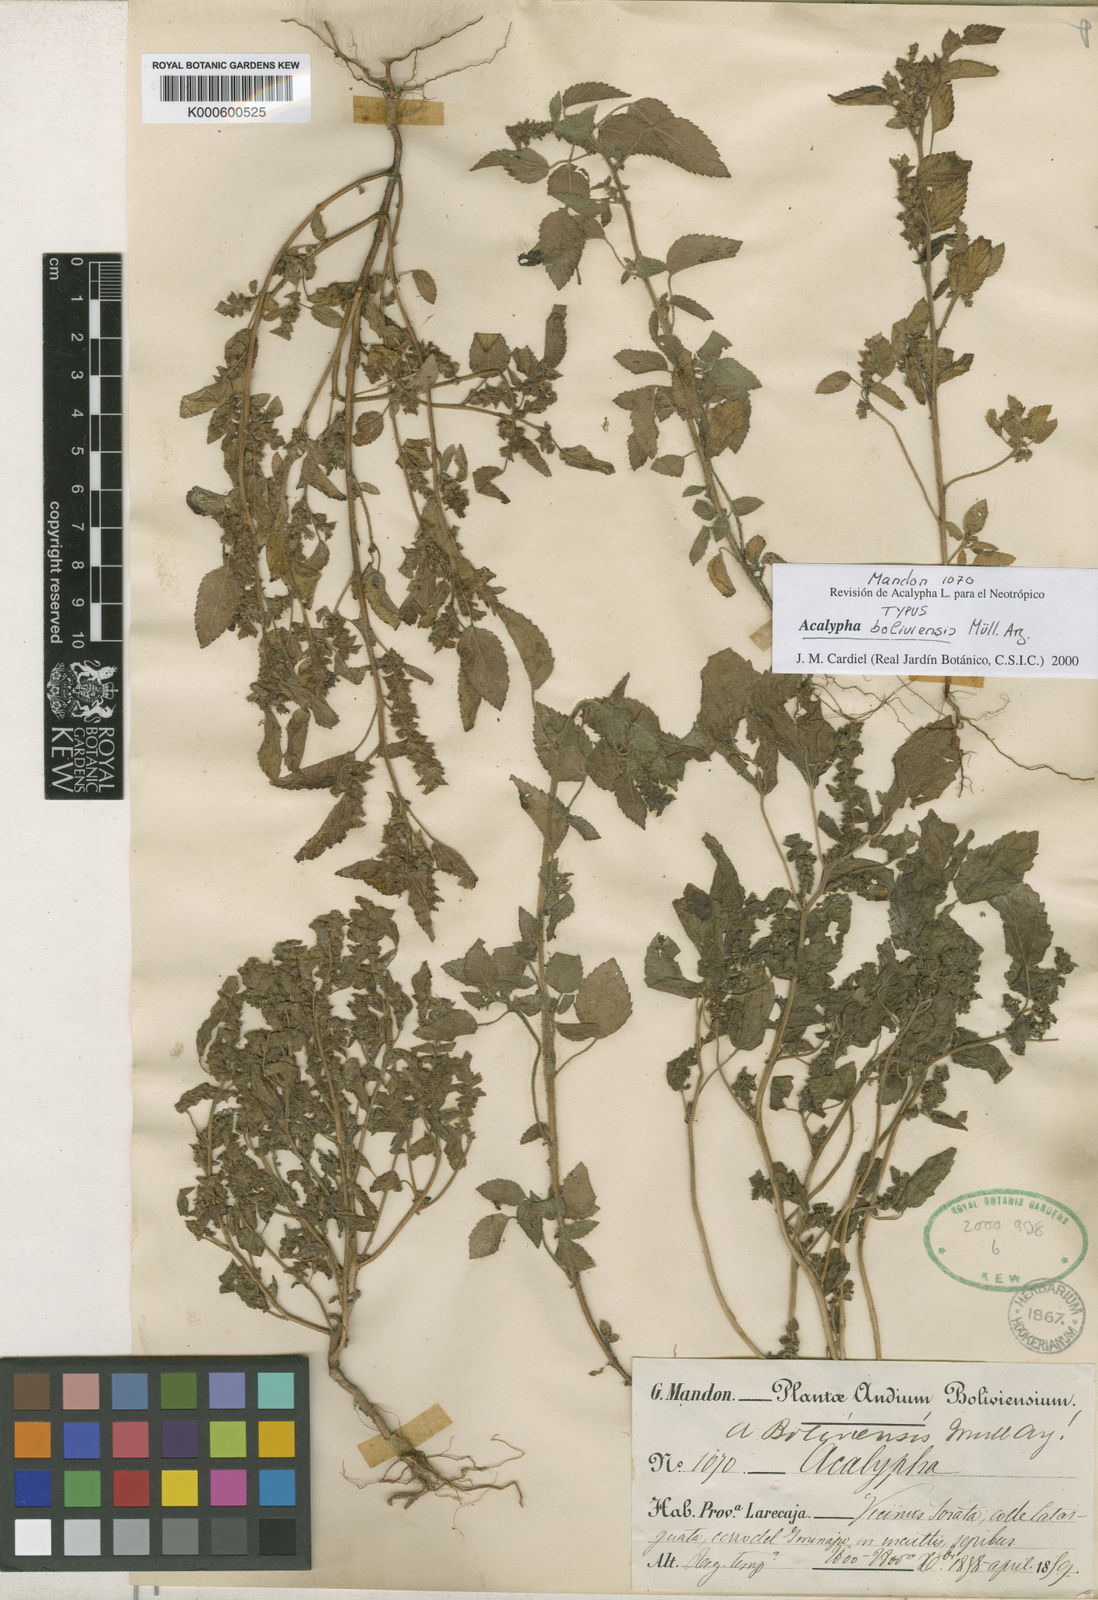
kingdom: Plantae
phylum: Tracheophyta
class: Magnoliopsida
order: Malpighiales
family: Euphorbiaceae
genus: Acalypha
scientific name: Acalypha
